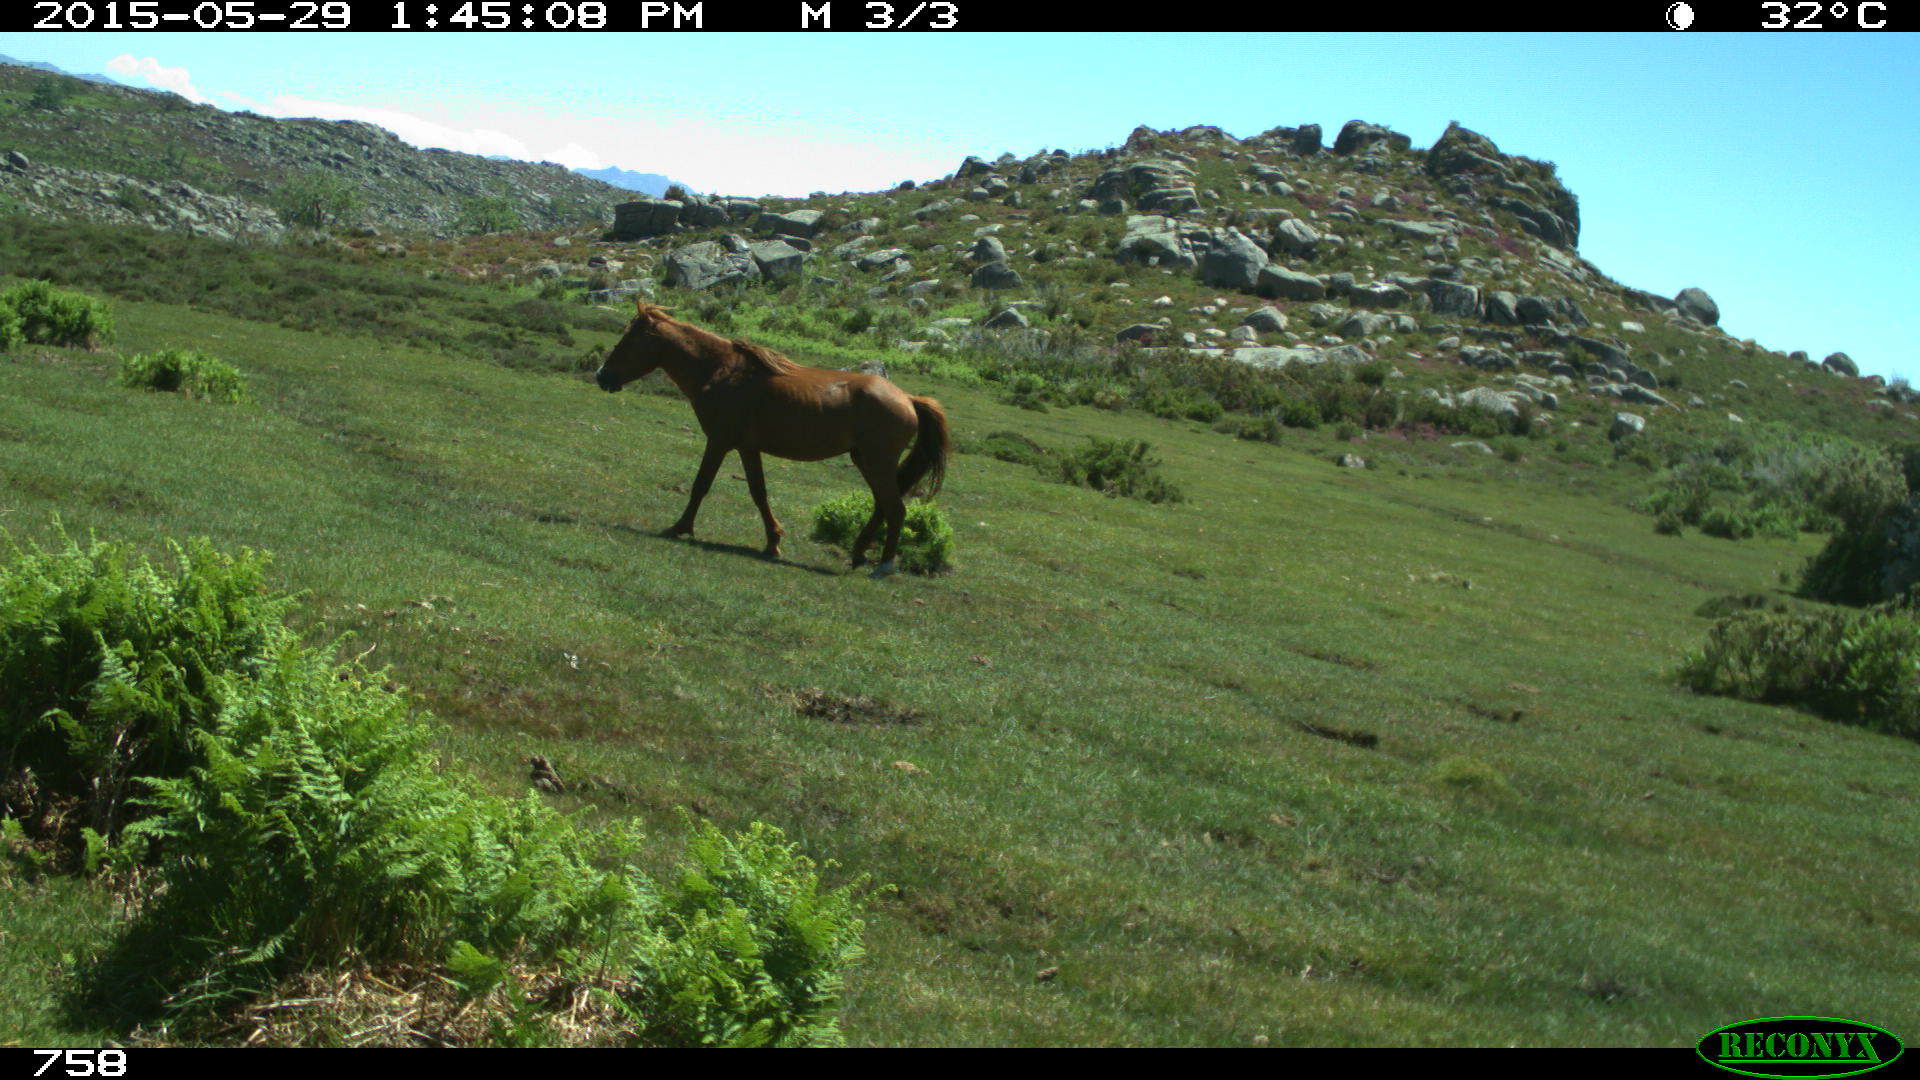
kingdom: Animalia
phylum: Chordata
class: Mammalia
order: Perissodactyla
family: Equidae
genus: Equus
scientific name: Equus caballus
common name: Horse
